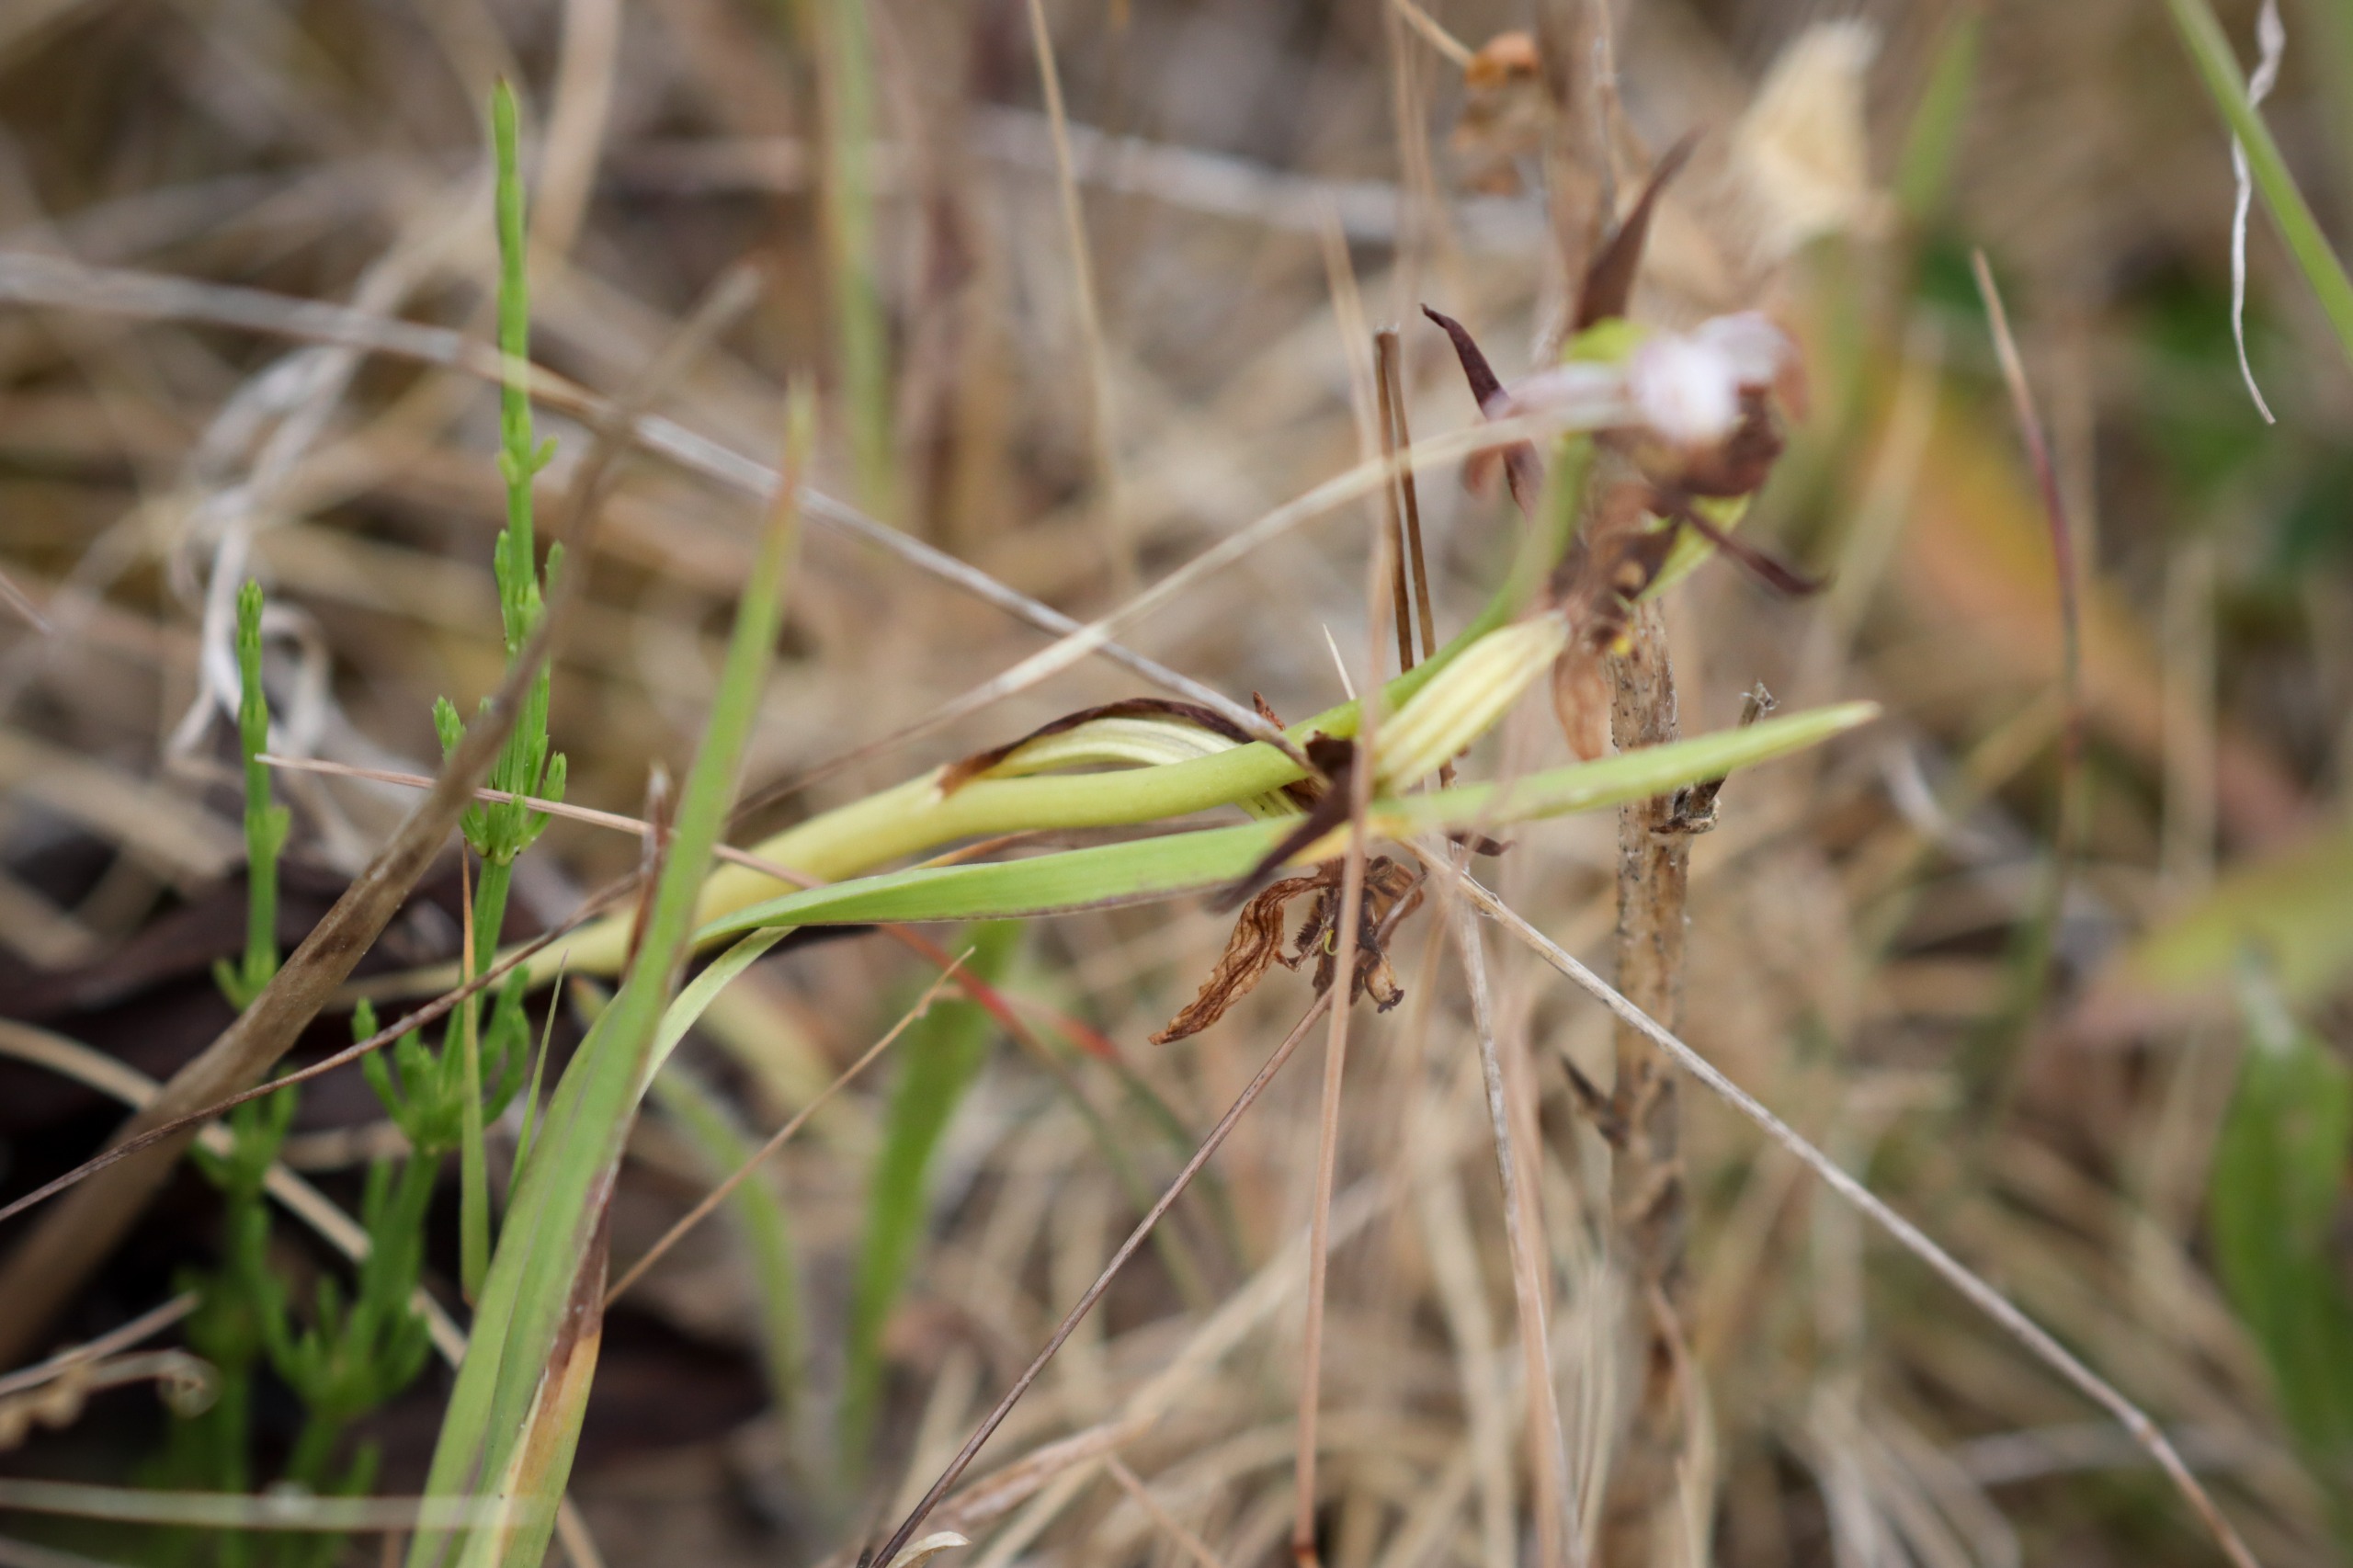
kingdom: Plantae
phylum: Tracheophyta
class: Liliopsida
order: Asparagales
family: Orchidaceae
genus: Ophrys
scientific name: Ophrys apifera
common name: Biblomst
